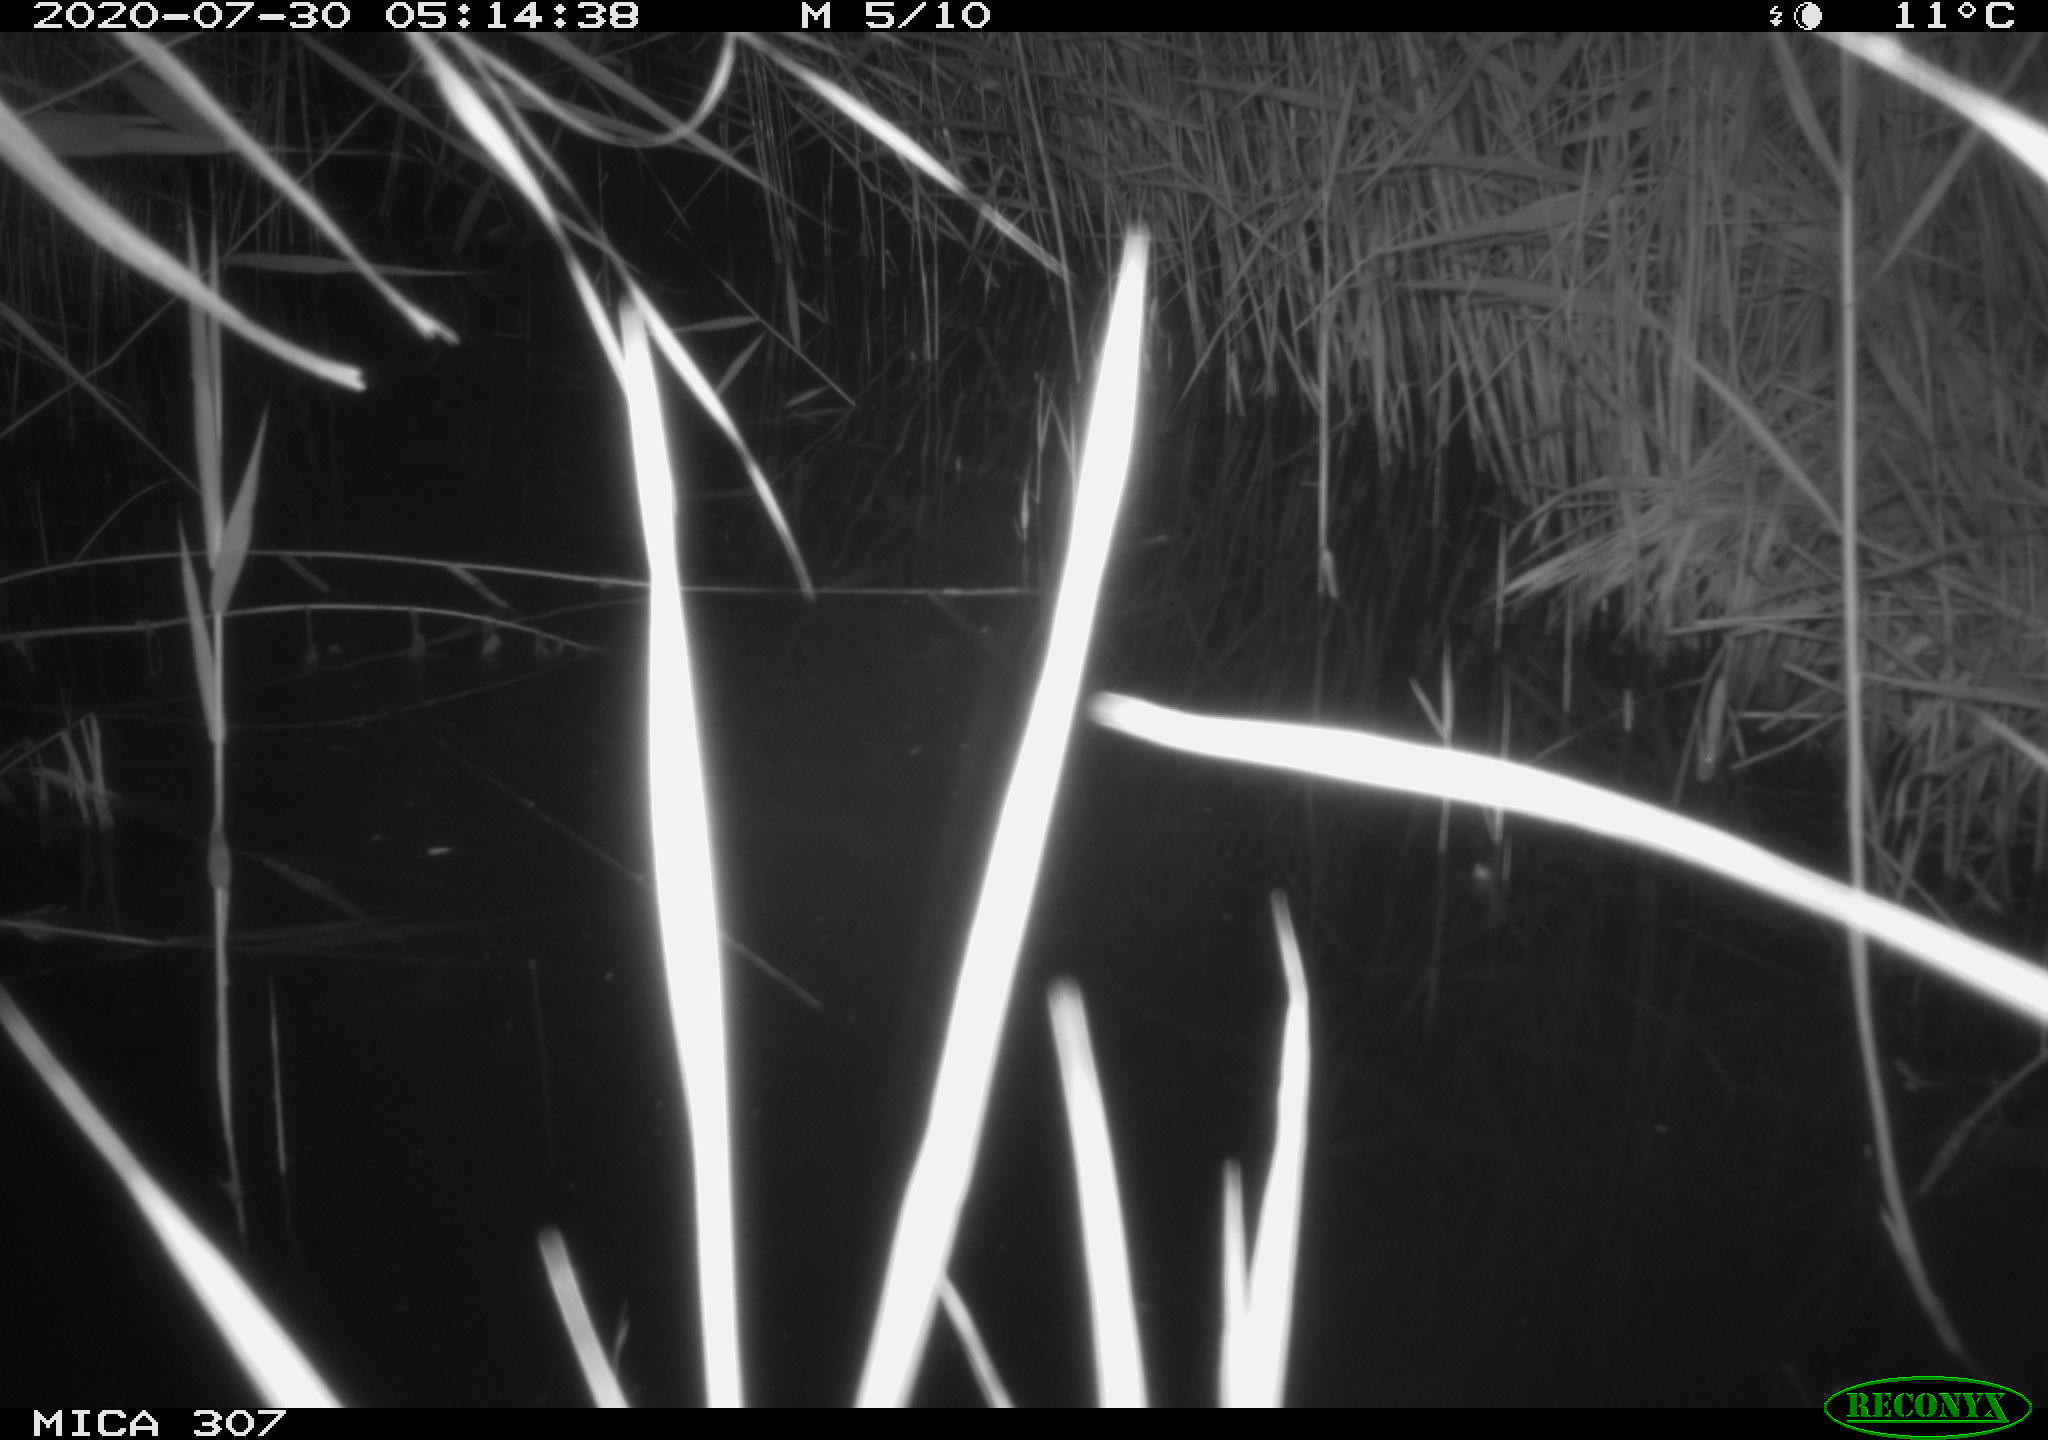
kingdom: Animalia
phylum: Chordata
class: Mammalia
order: Rodentia
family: Muridae
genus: Rattus
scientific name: Rattus norvegicus
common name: Brown rat
